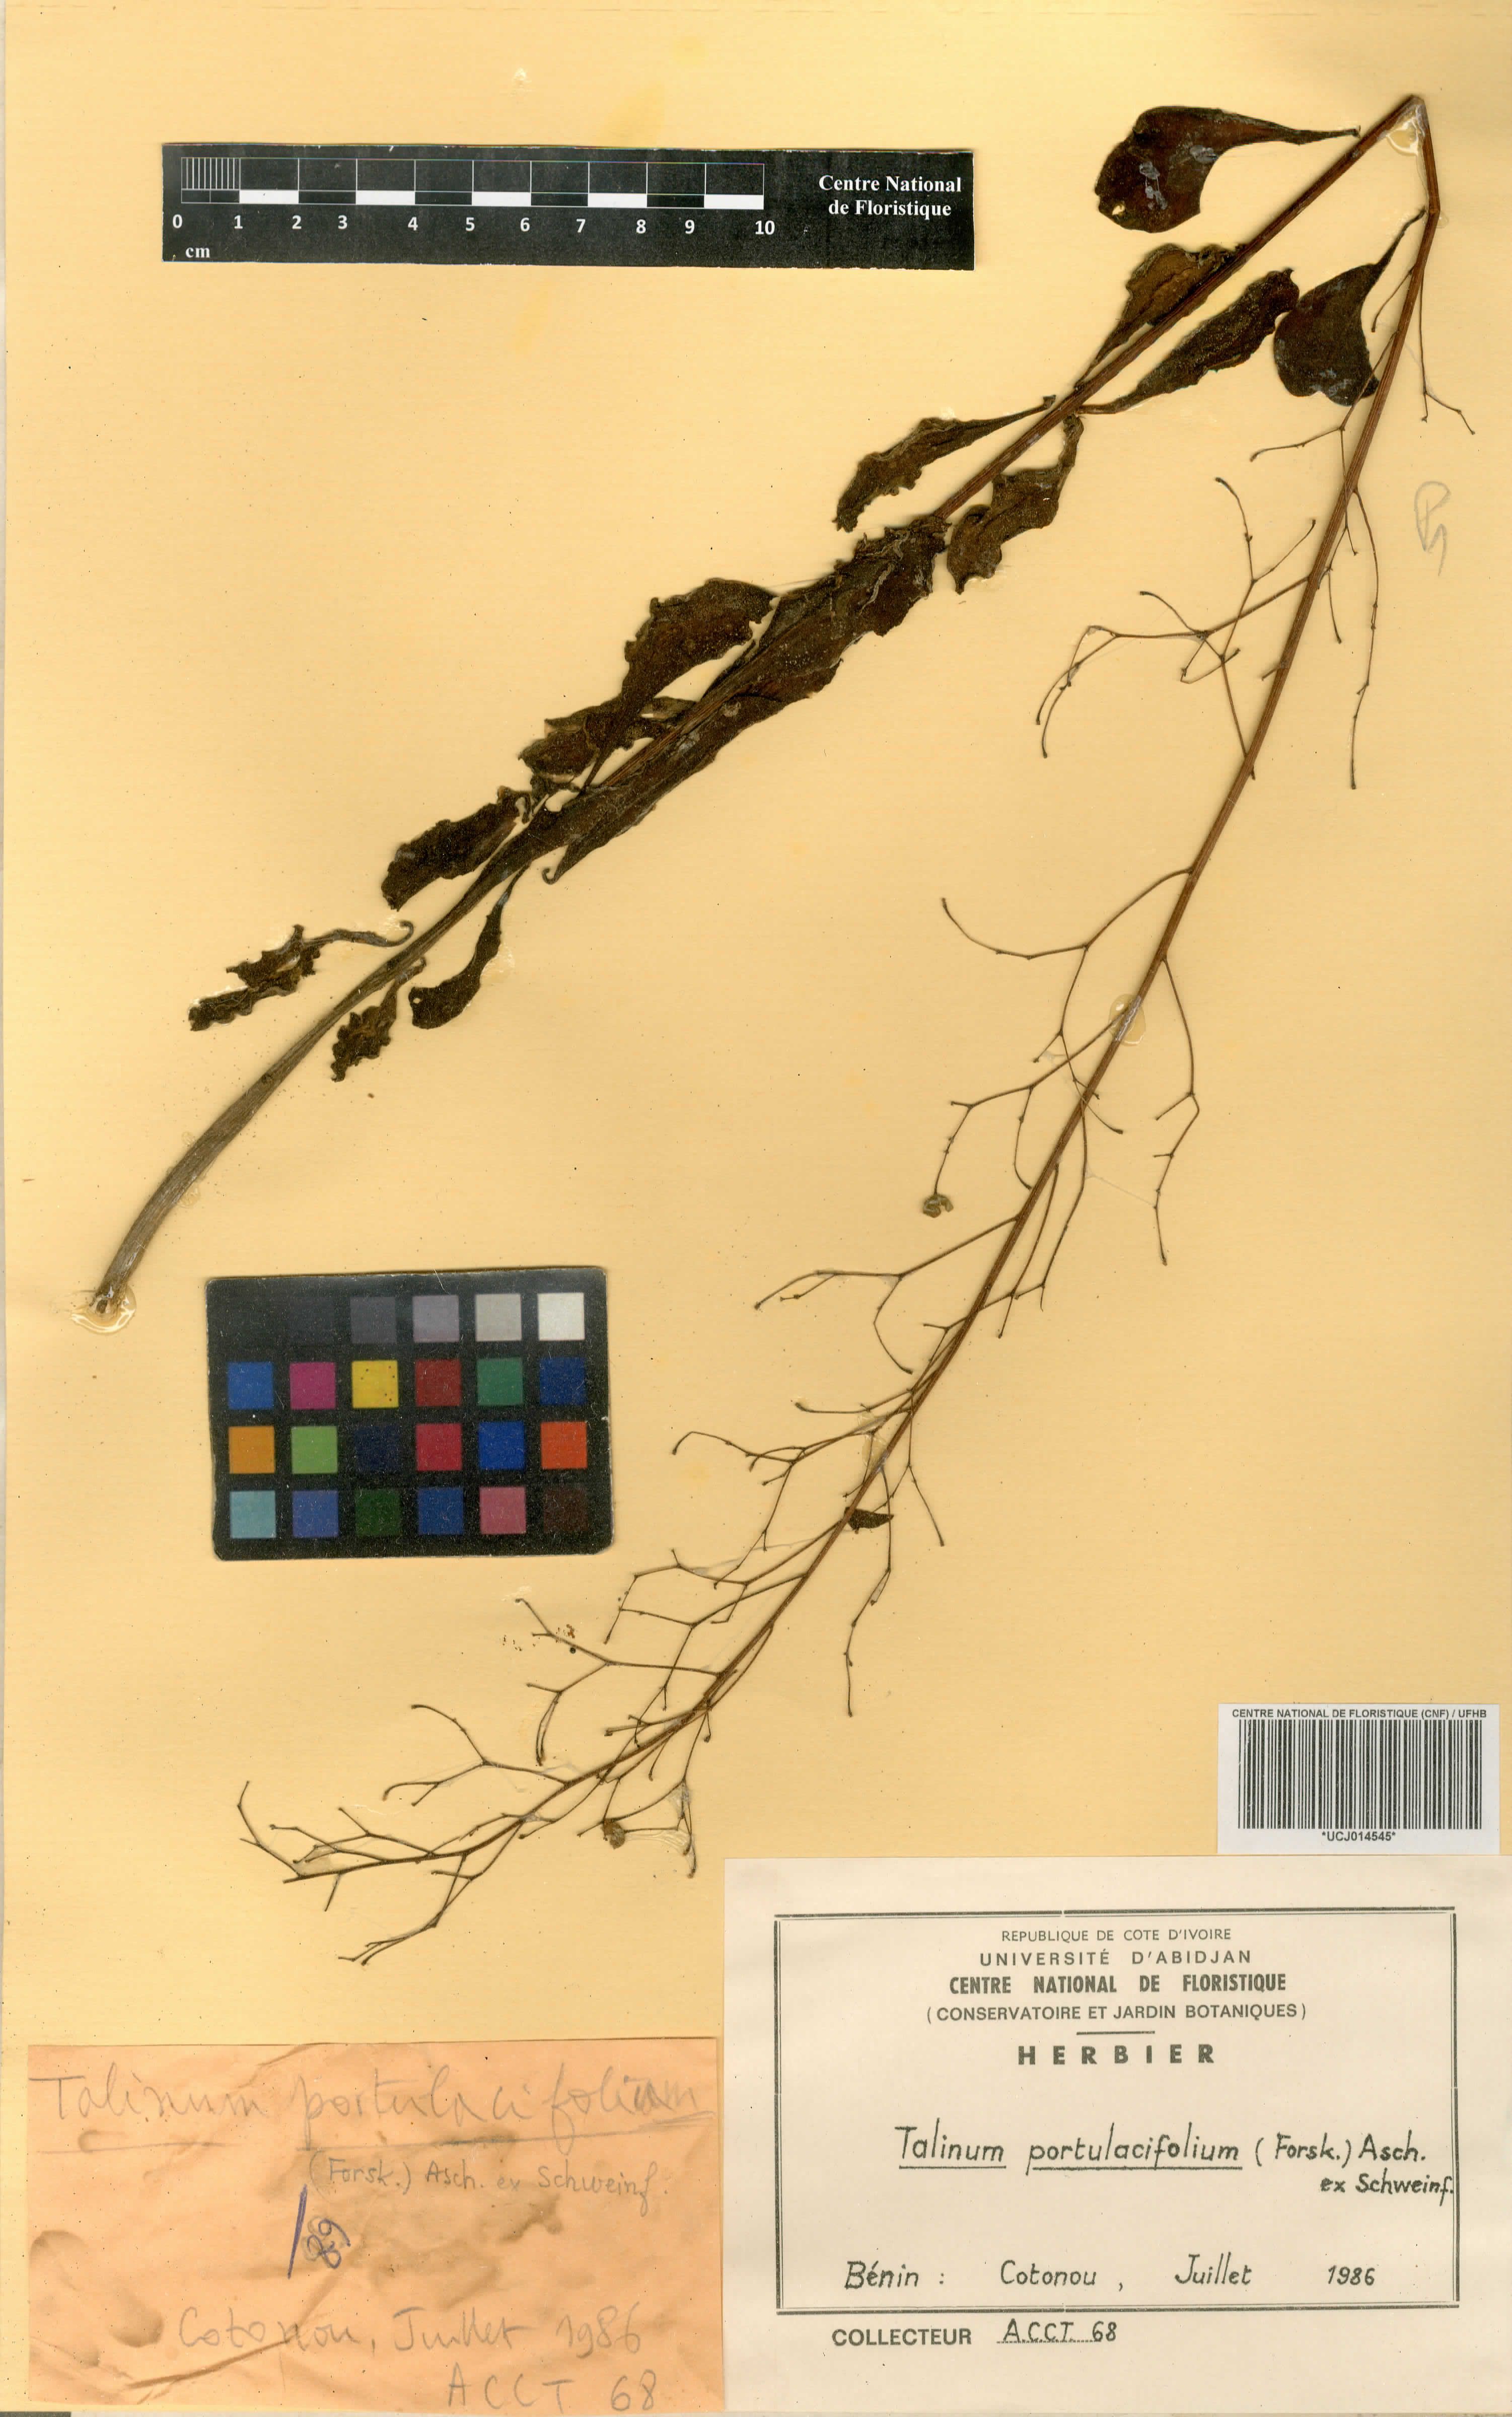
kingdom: Plantae
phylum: Tracheophyta
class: Magnoliopsida
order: Caryophyllales
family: Talinaceae
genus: Talinum
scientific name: Talinum portulacifolium
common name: Flameflower
